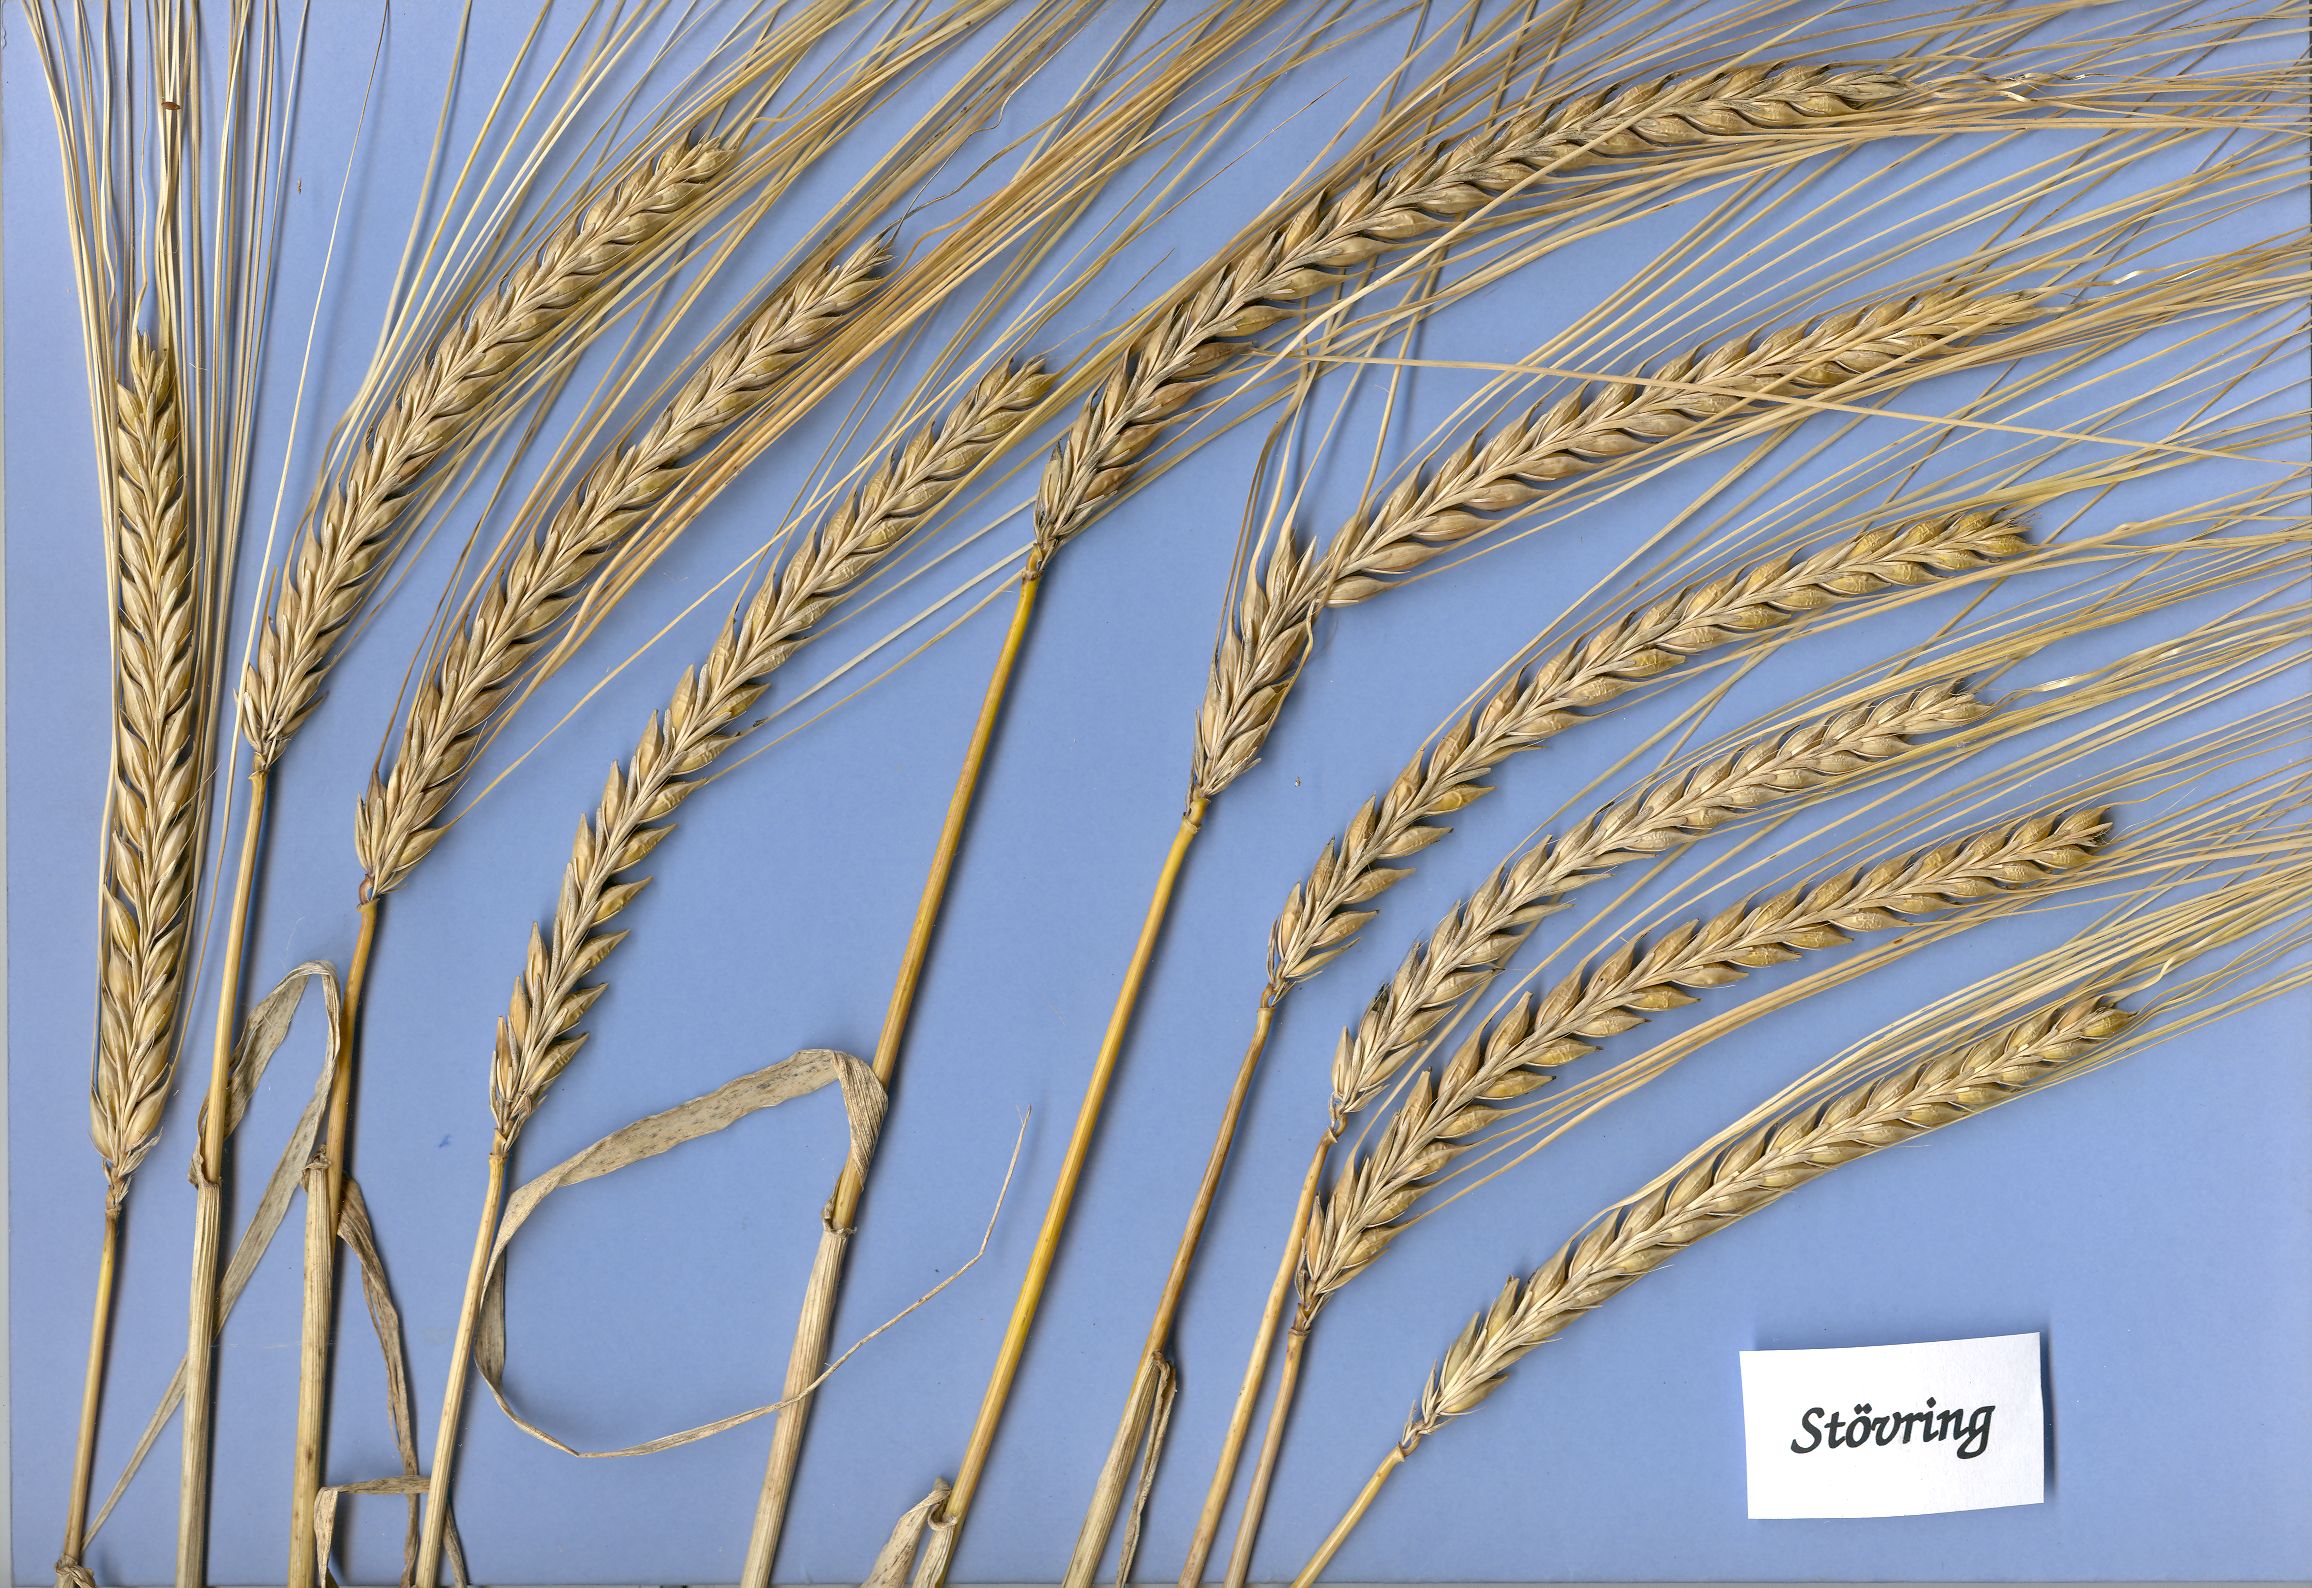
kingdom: Plantae
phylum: Tracheophyta
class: Liliopsida
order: Poales
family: Poaceae
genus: Hordeum
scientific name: Hordeum vulgare
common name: Common barley
